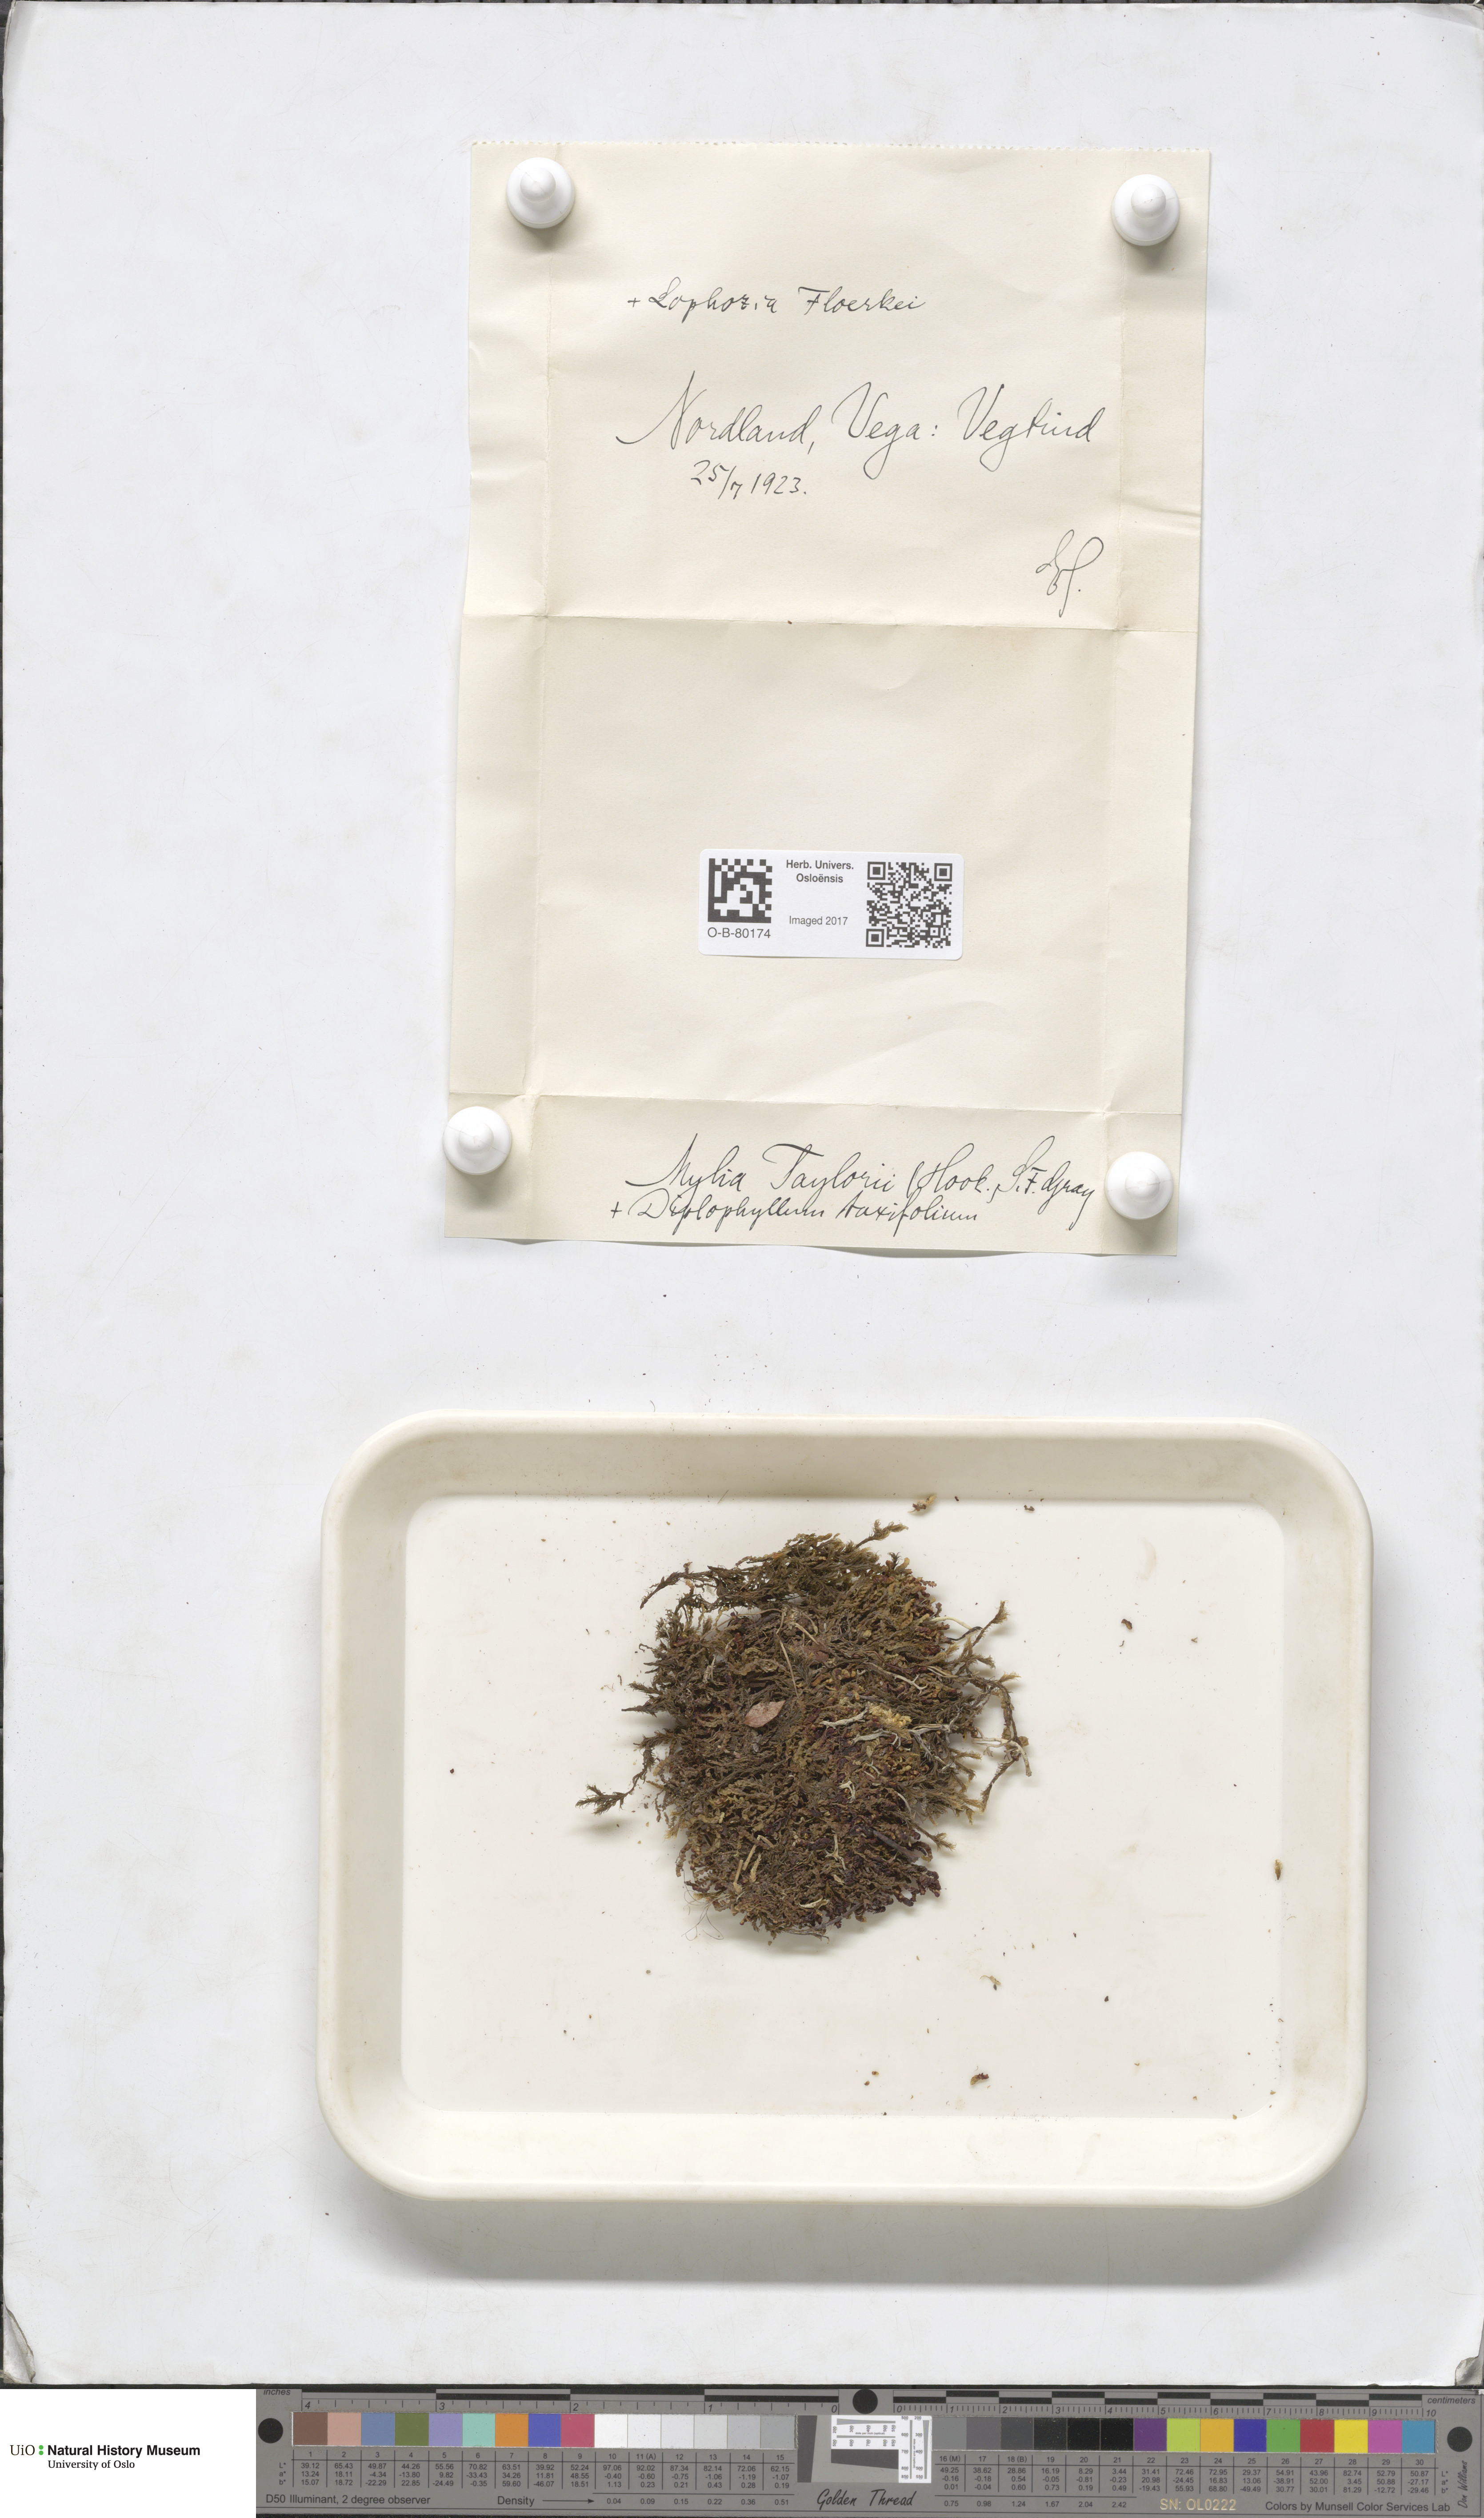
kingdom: Plantae
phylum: Marchantiophyta
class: Jungermanniopsida
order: Jungermanniales
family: Myliaceae
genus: Mylia
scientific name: Mylia taylorii
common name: Taylor s flapwort
